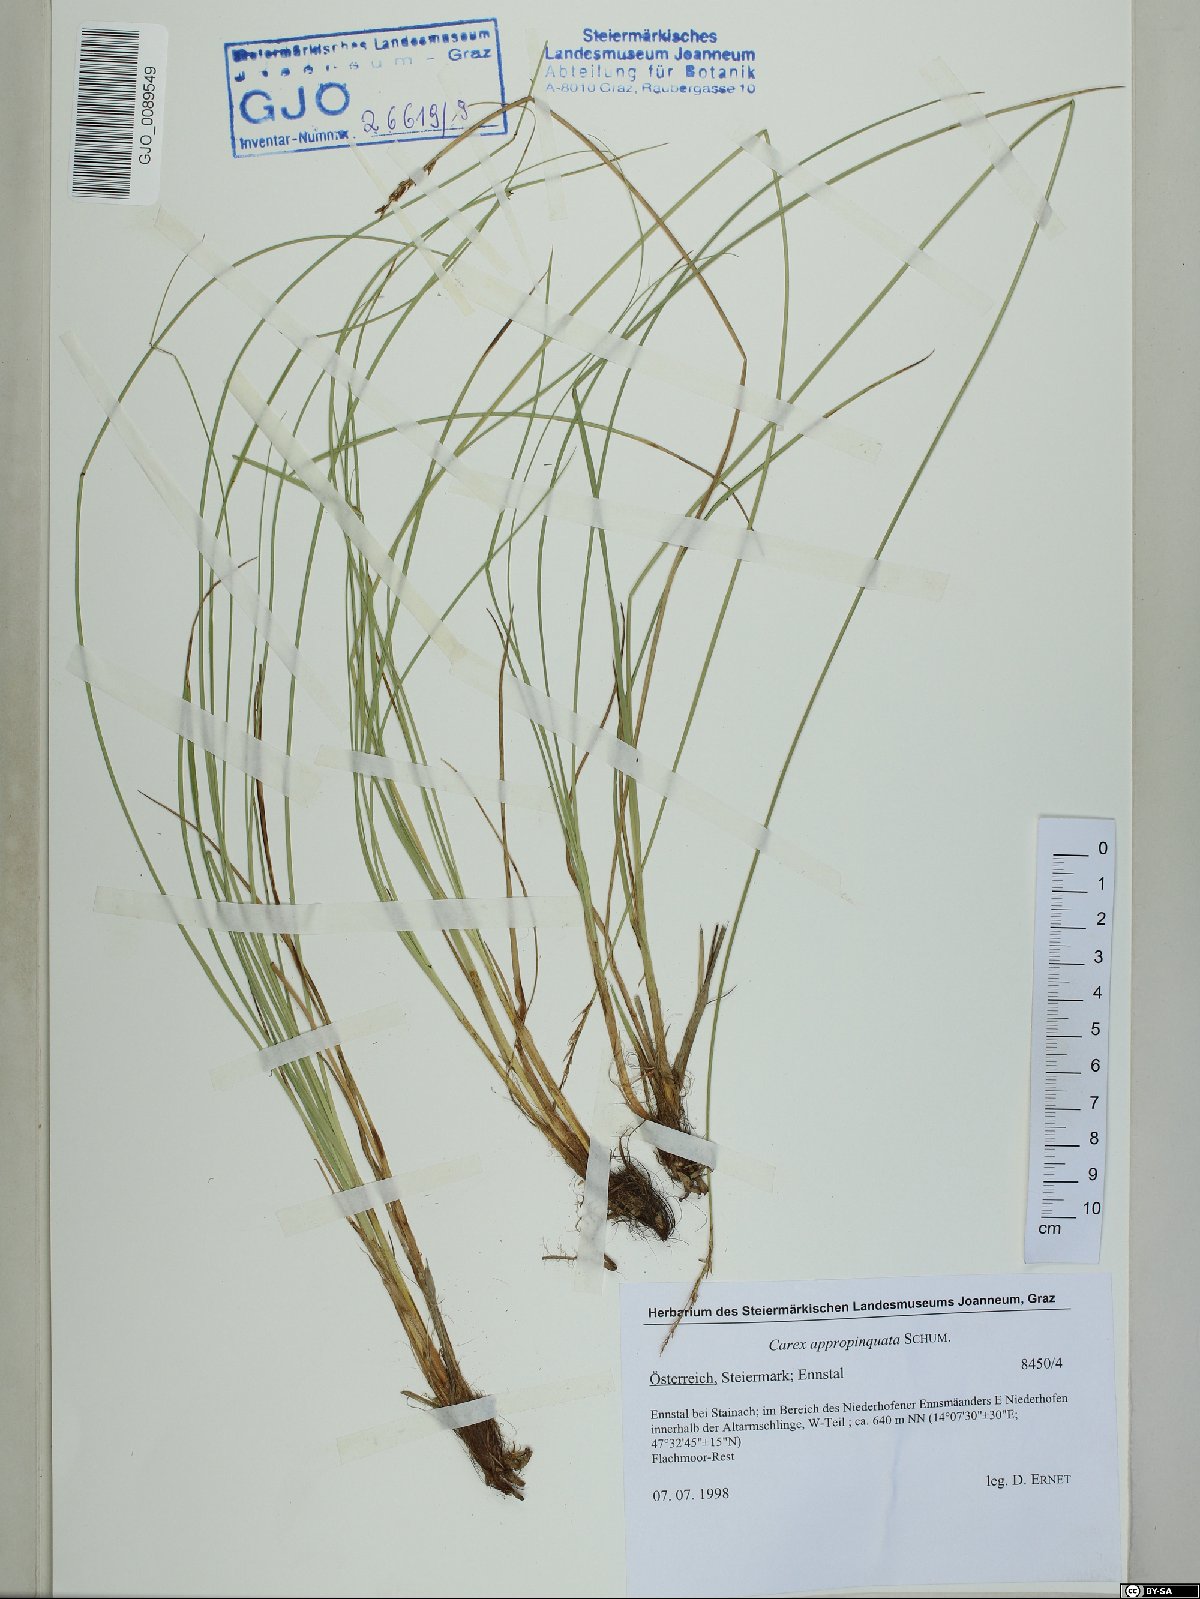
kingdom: Plantae
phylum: Tracheophyta
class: Liliopsida
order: Poales
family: Cyperaceae
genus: Carex
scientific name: Carex appropinquata
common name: Fibrous tussock-sedge
